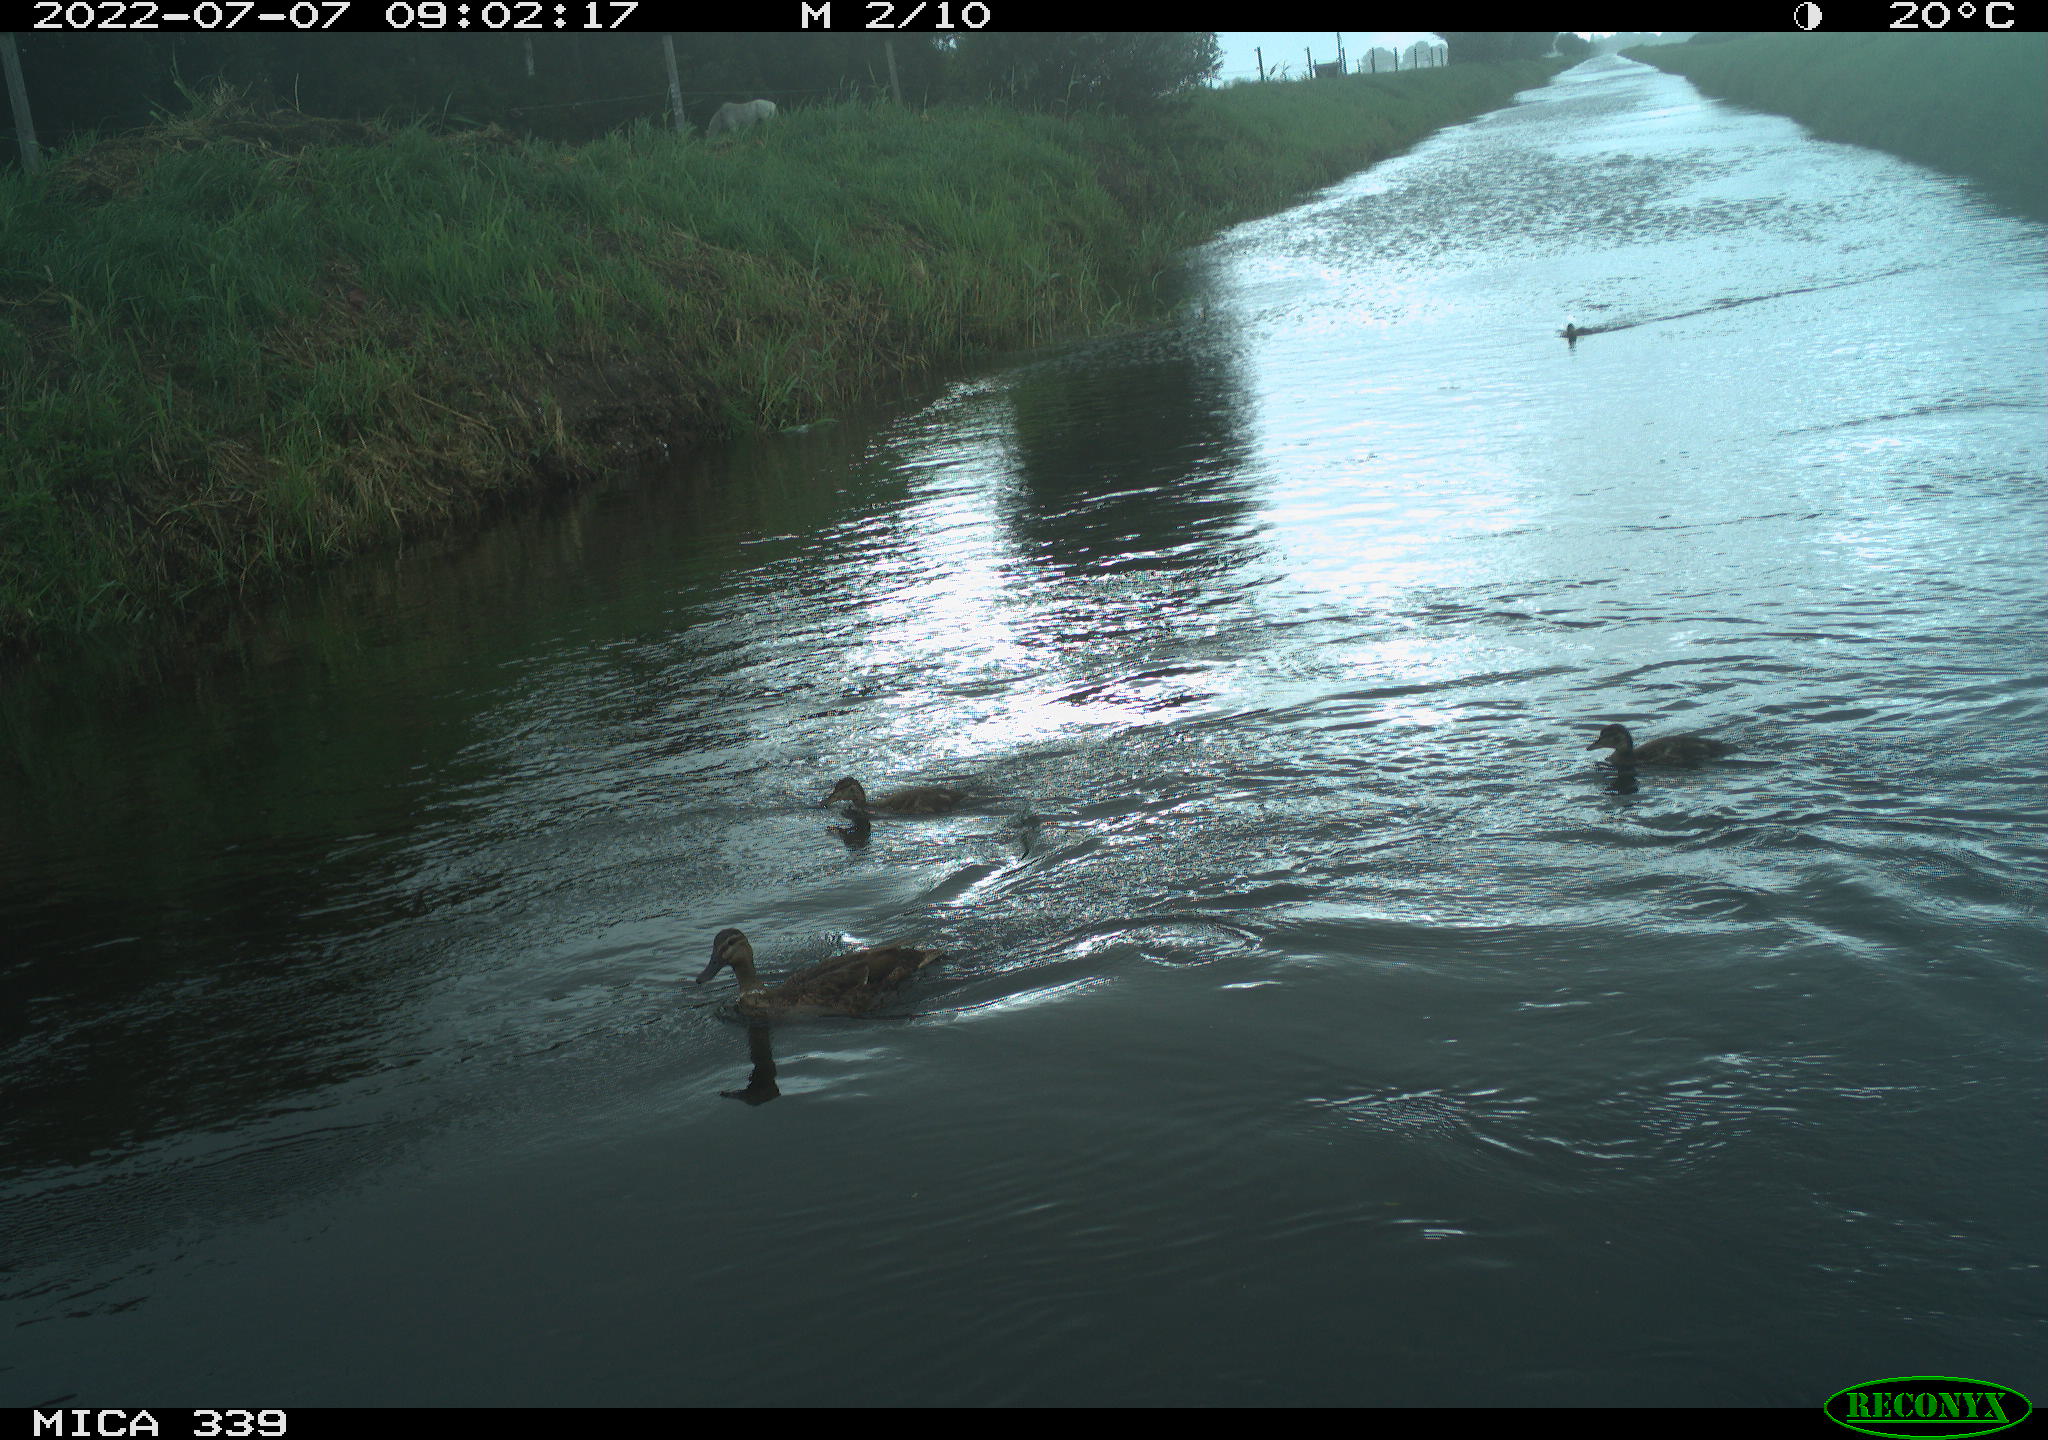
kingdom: Animalia
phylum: Chordata
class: Aves
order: Anseriformes
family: Anatidae
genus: Anas
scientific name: Anas platyrhynchos
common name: Mallard
